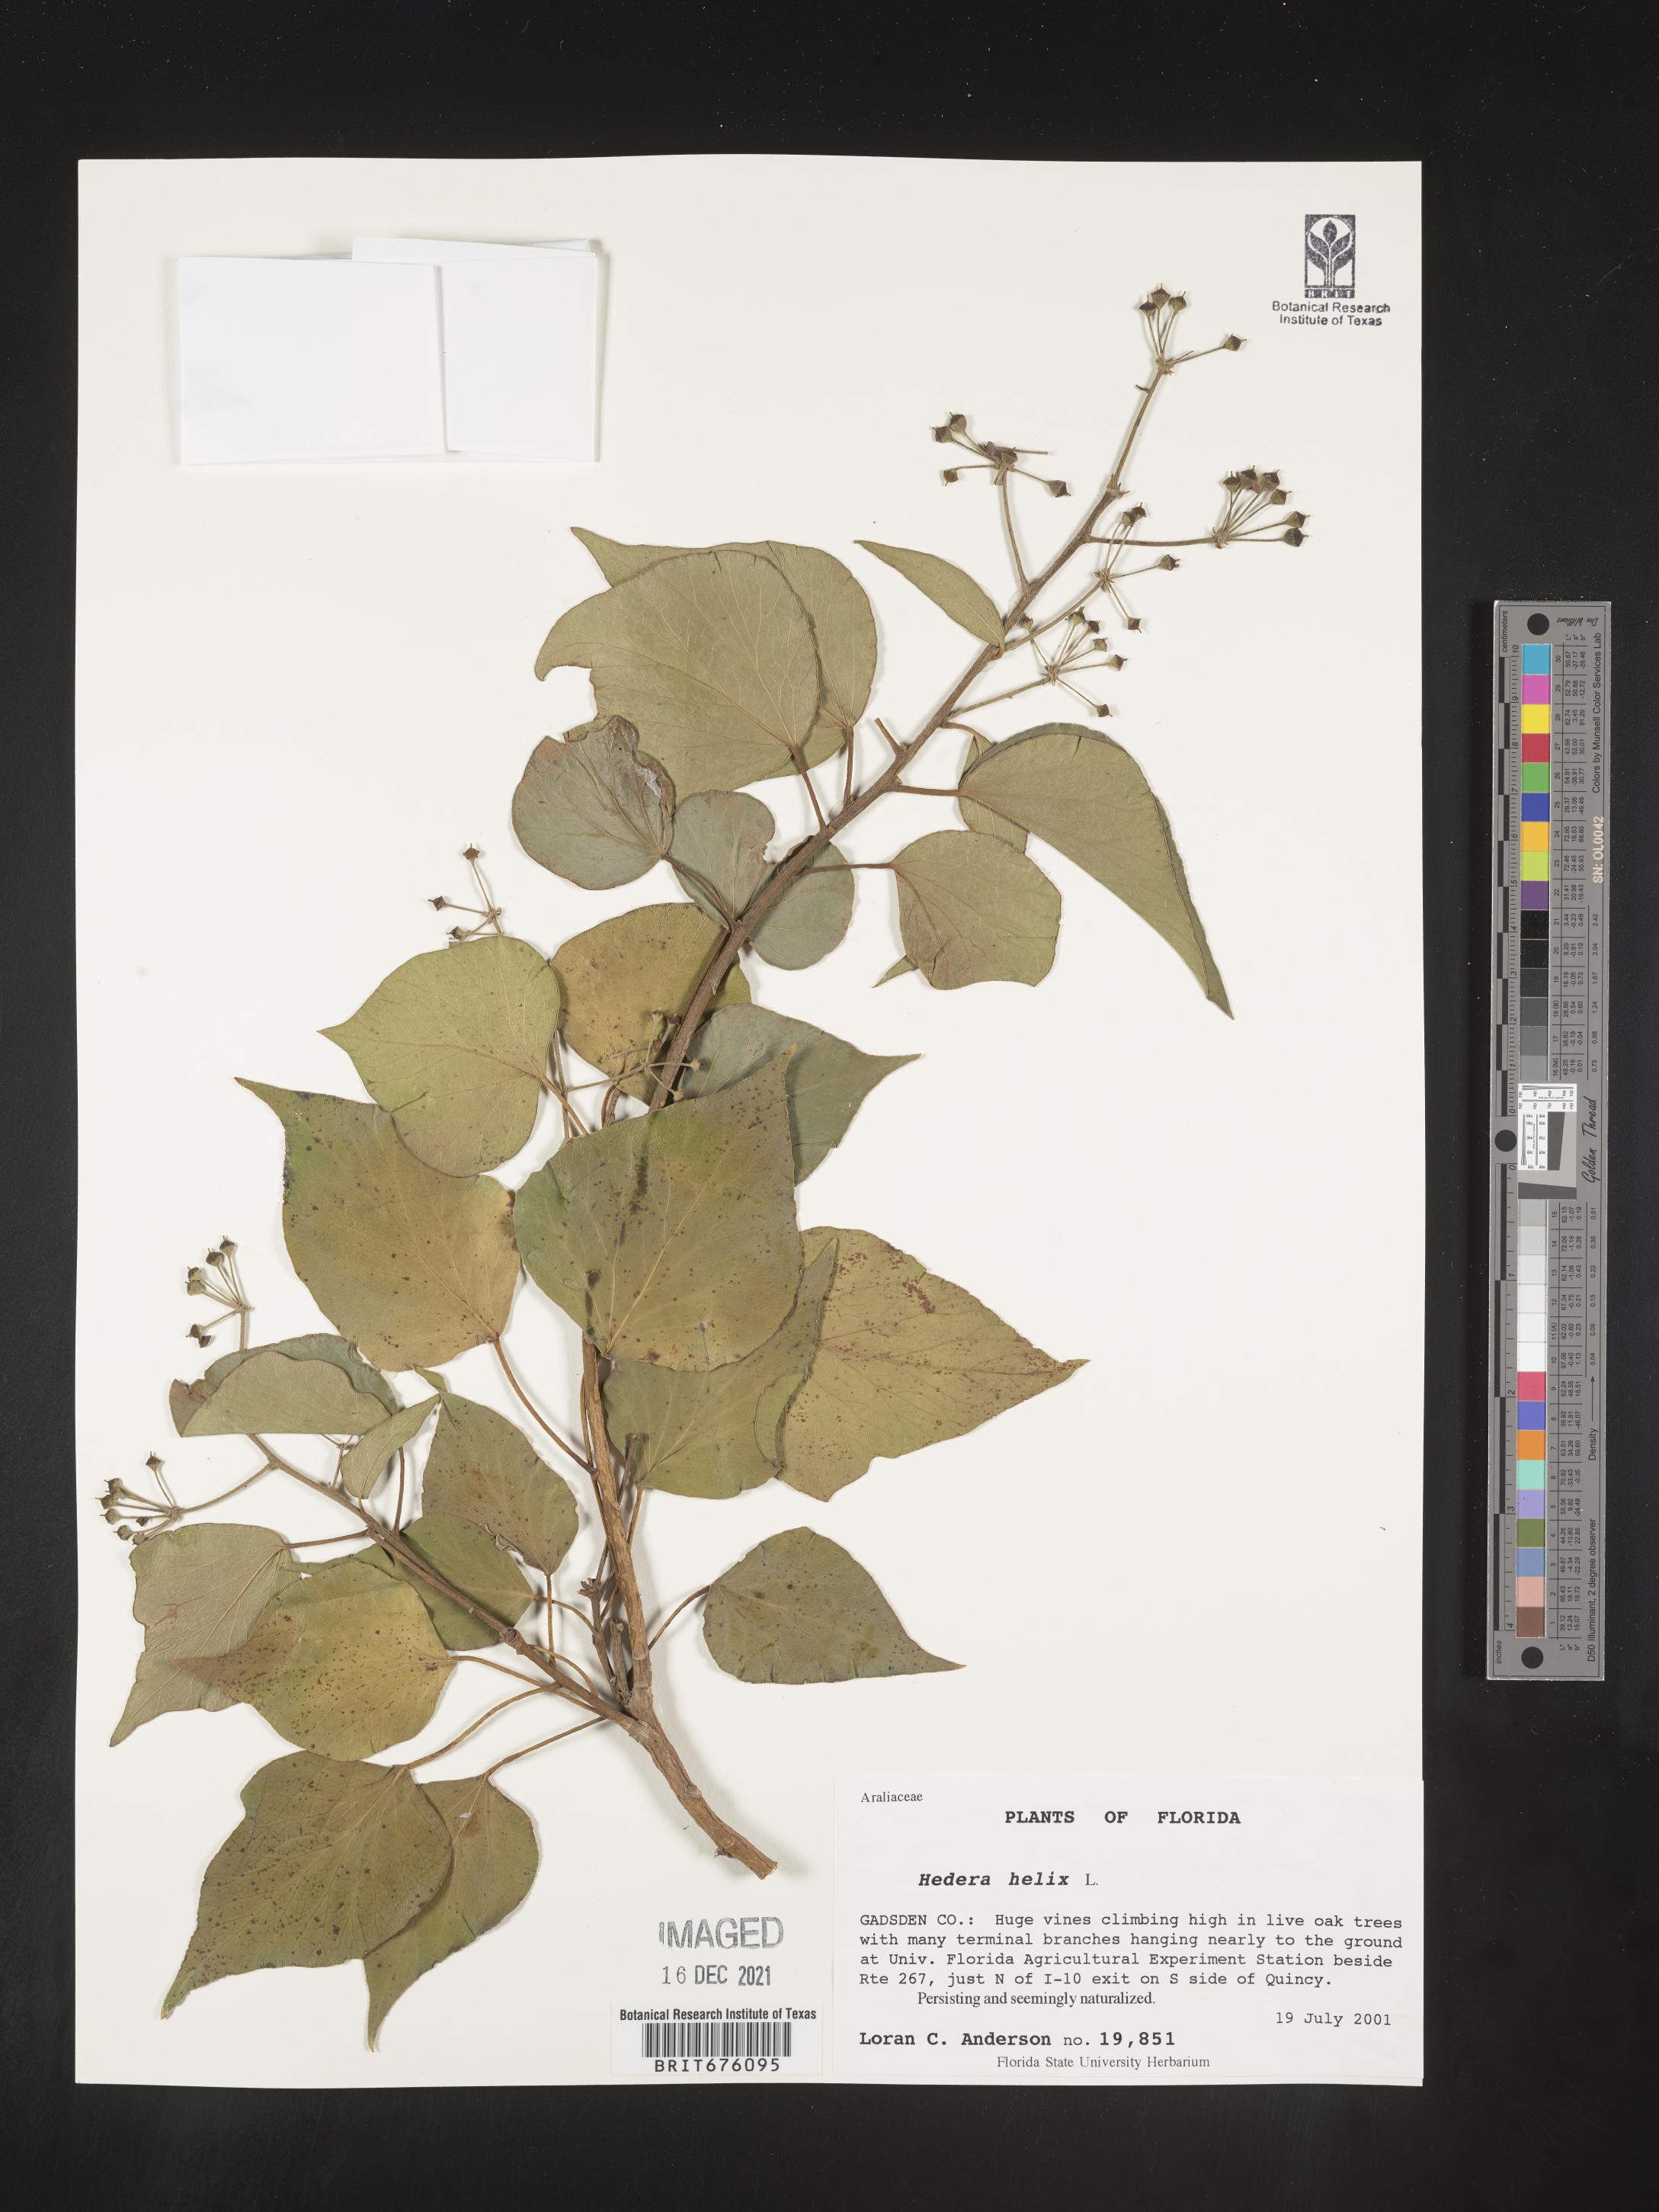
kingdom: Plantae
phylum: Tracheophyta
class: Magnoliopsida
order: Apiales
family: Araliaceae
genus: Hedera
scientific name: Hedera
